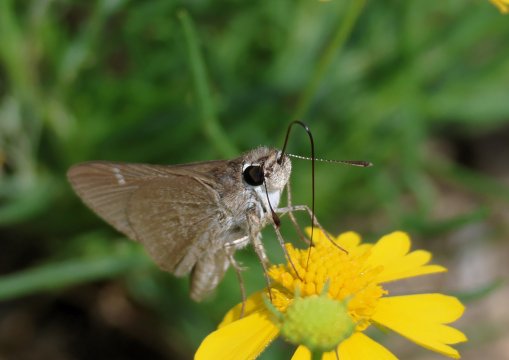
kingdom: Animalia
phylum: Arthropoda
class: Insecta
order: Lepidoptera
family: Hesperiidae
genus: Lerodea
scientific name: Lerodea eufala
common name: Eufala Skipper
